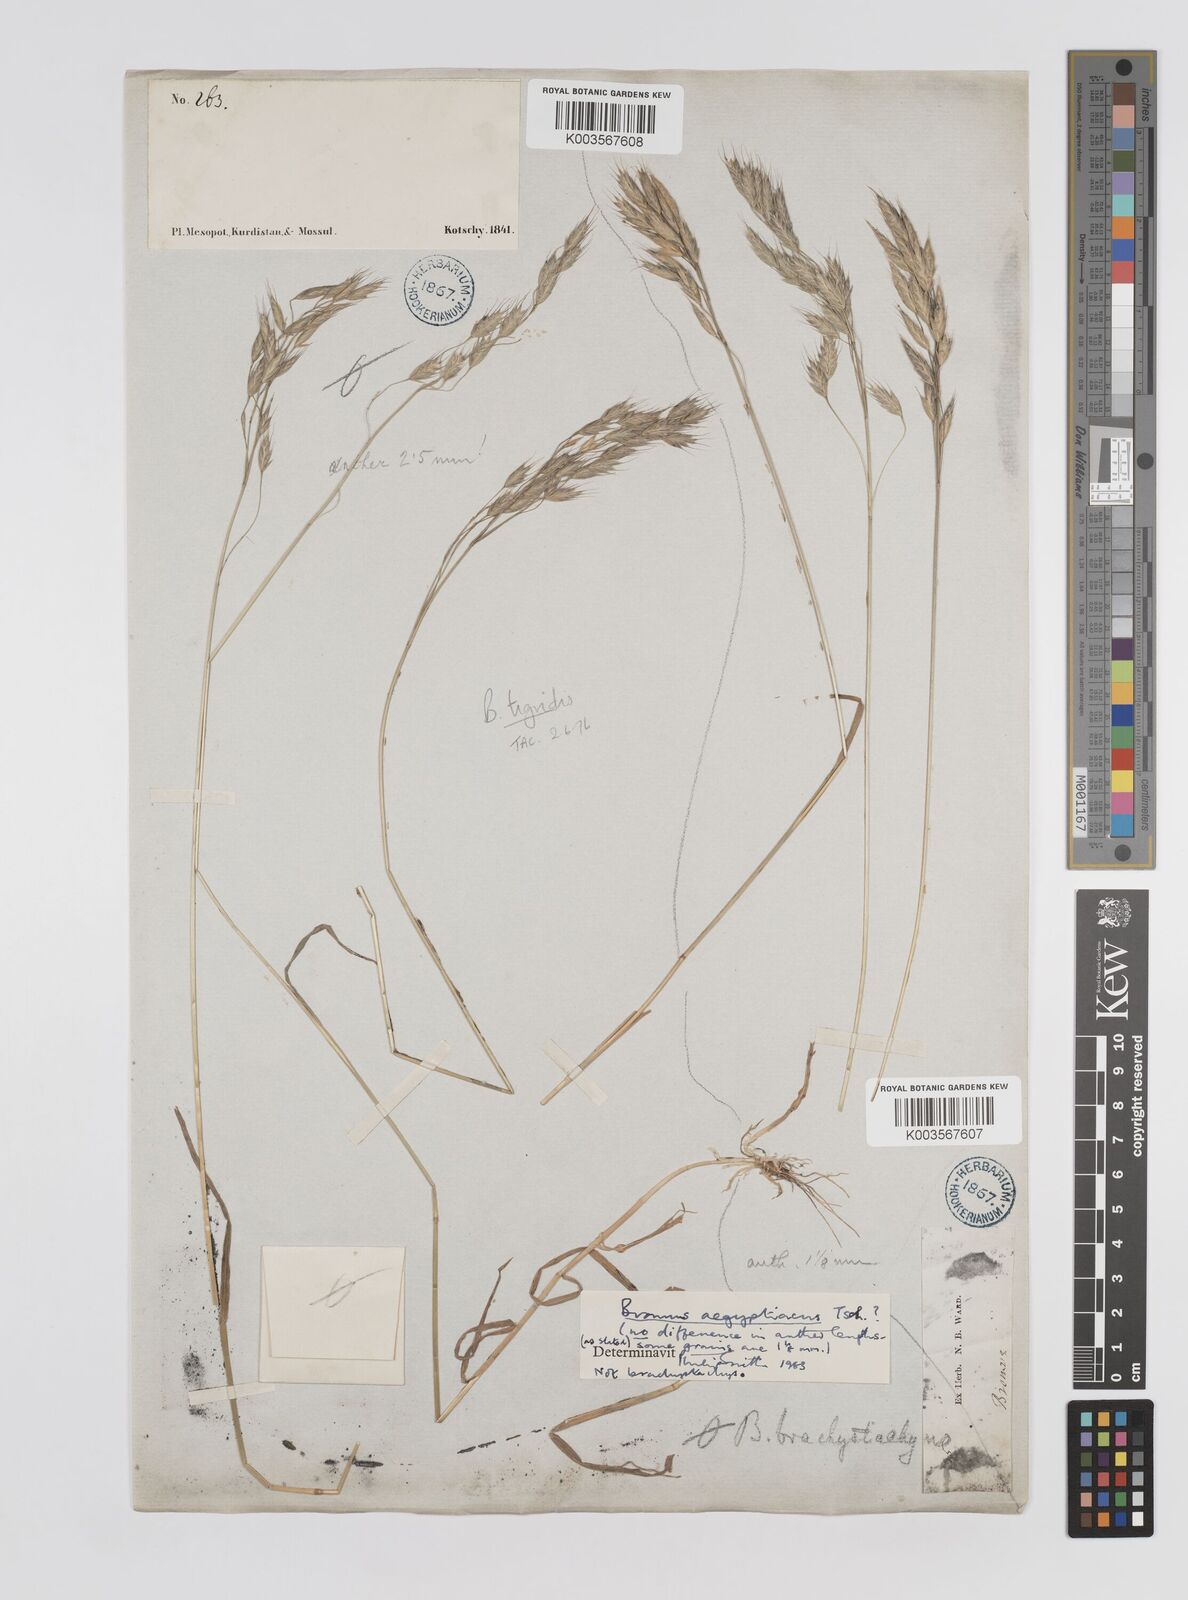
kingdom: Plantae
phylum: Tracheophyta
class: Liliopsida
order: Poales
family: Poaceae
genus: Bromus
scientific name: Bromus brachystachys
